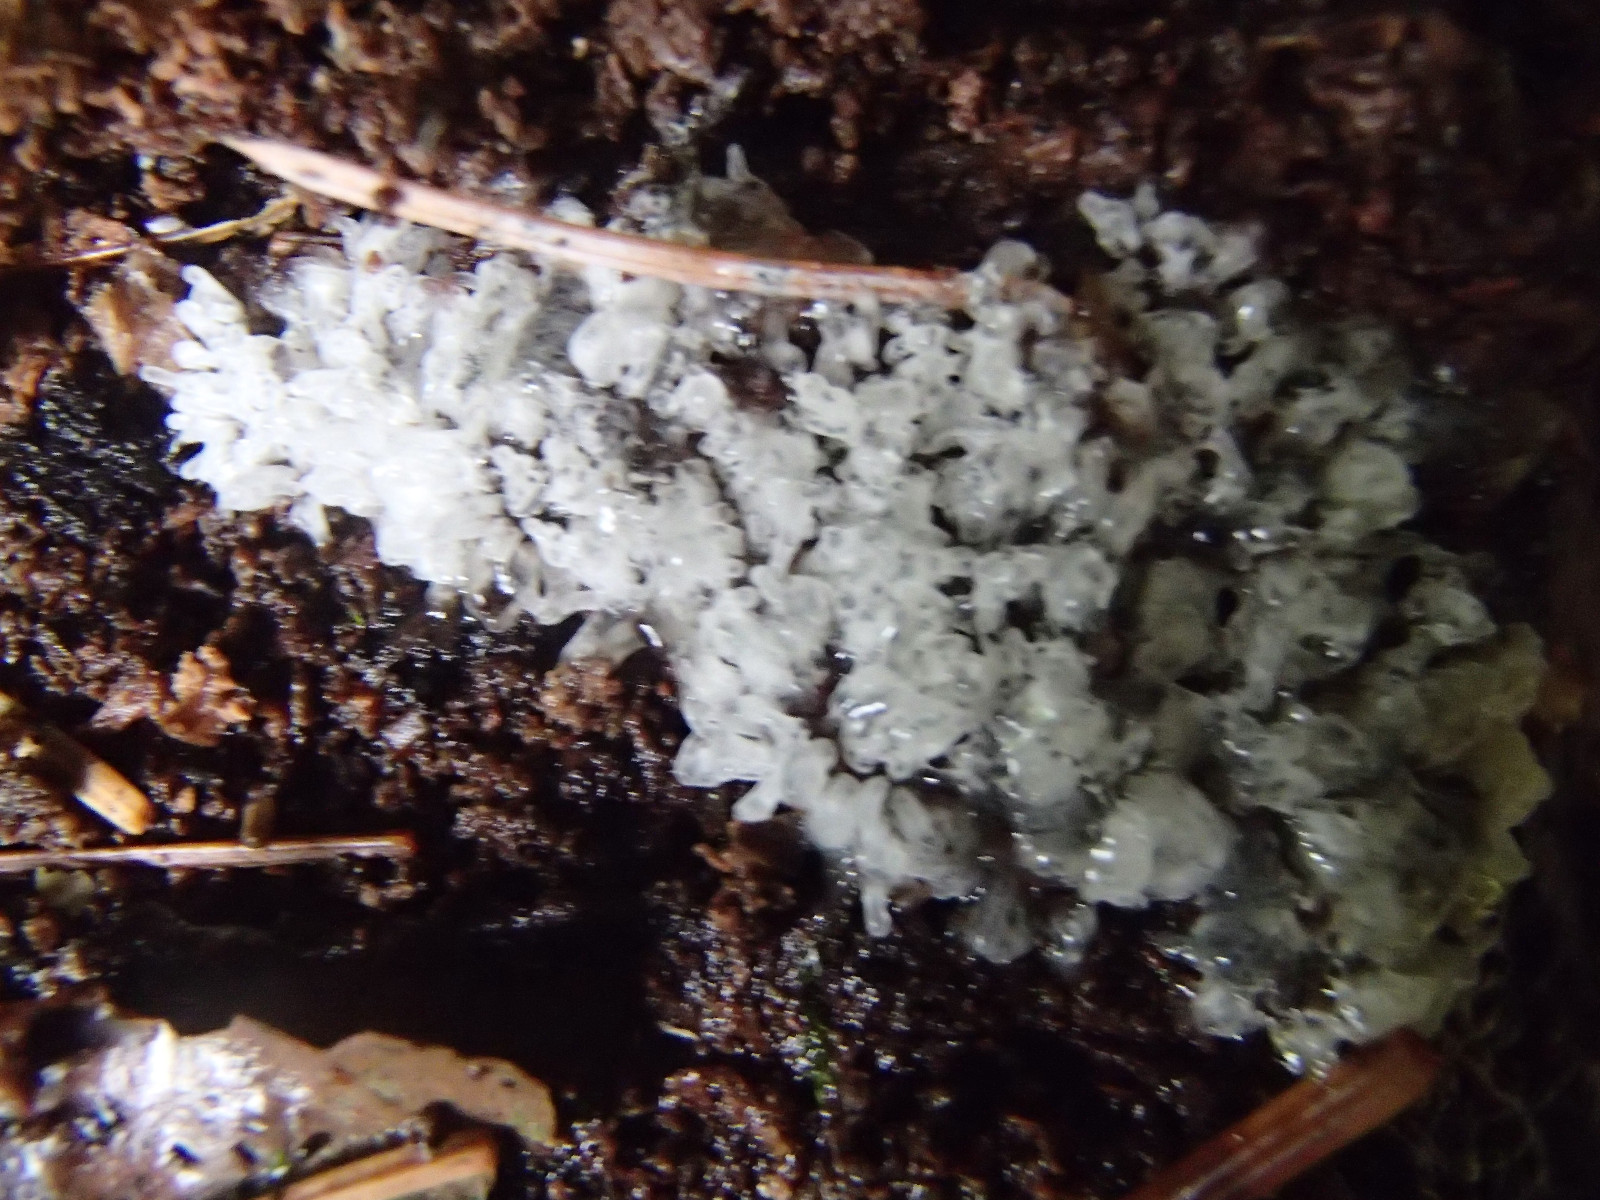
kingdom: Protozoa
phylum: Mycetozoa
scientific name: Mycetozoa
